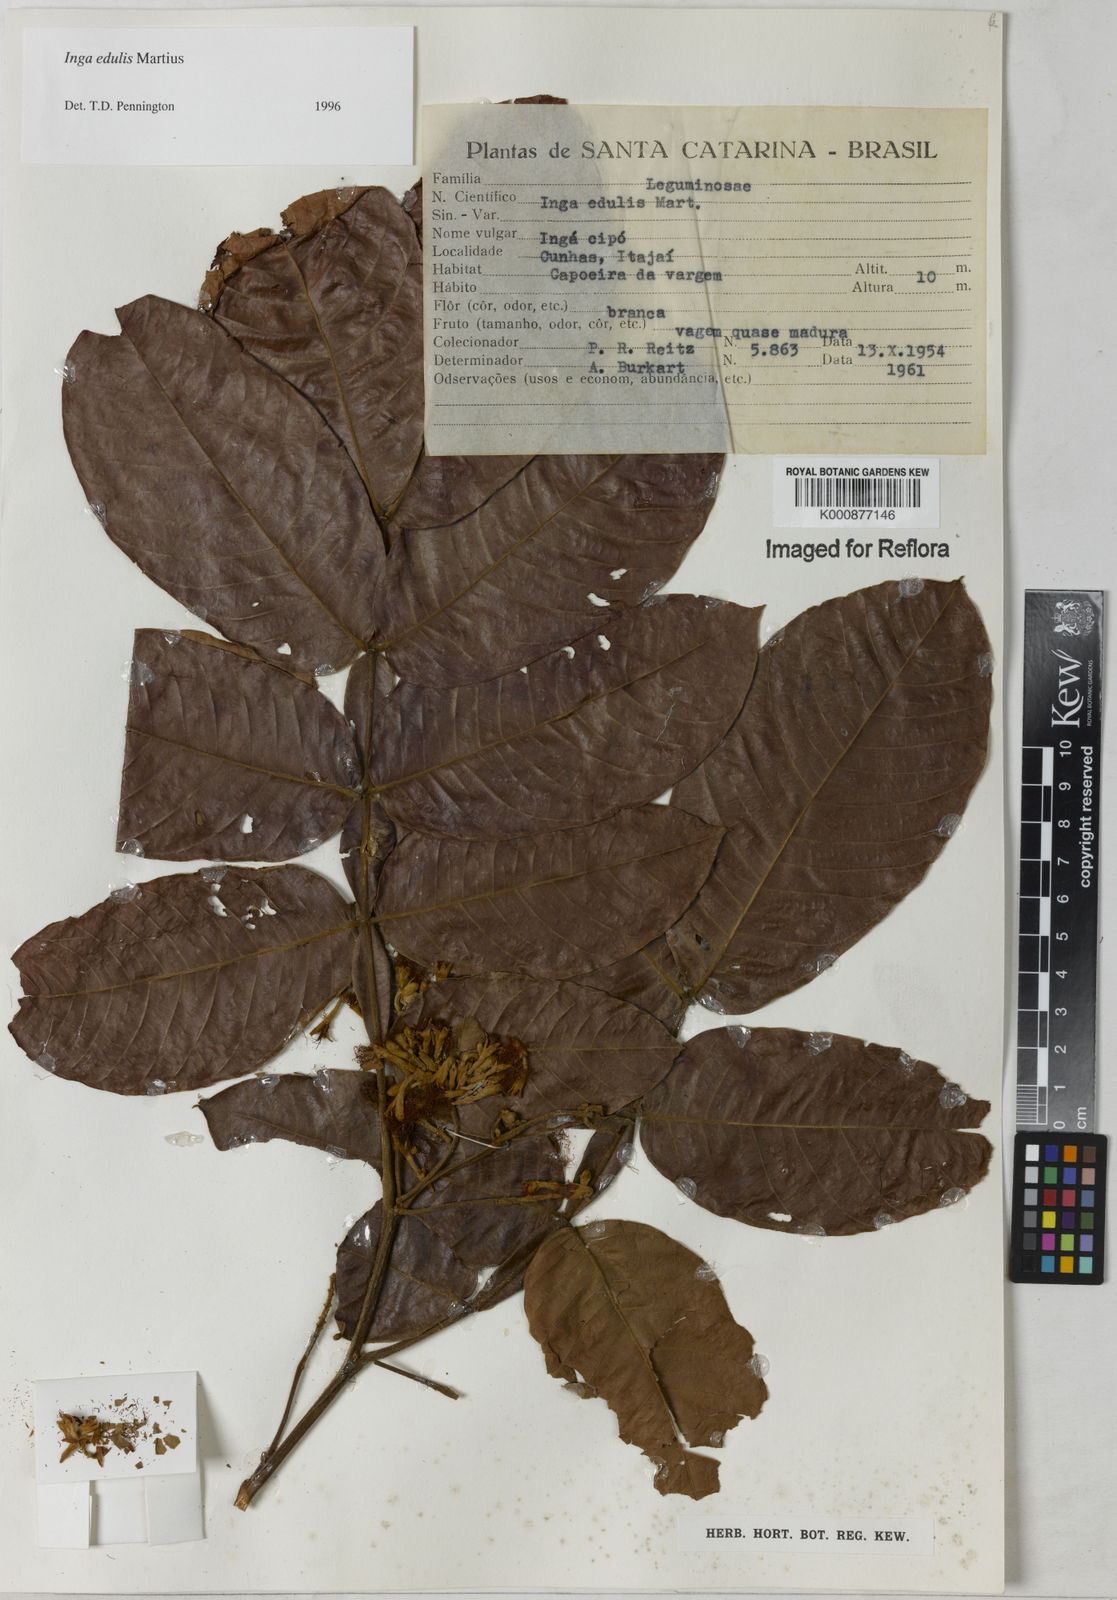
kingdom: Plantae
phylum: Tracheophyta
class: Magnoliopsida
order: Fabales
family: Fabaceae
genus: Inga
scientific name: Inga edulis
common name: Ice cream bean
